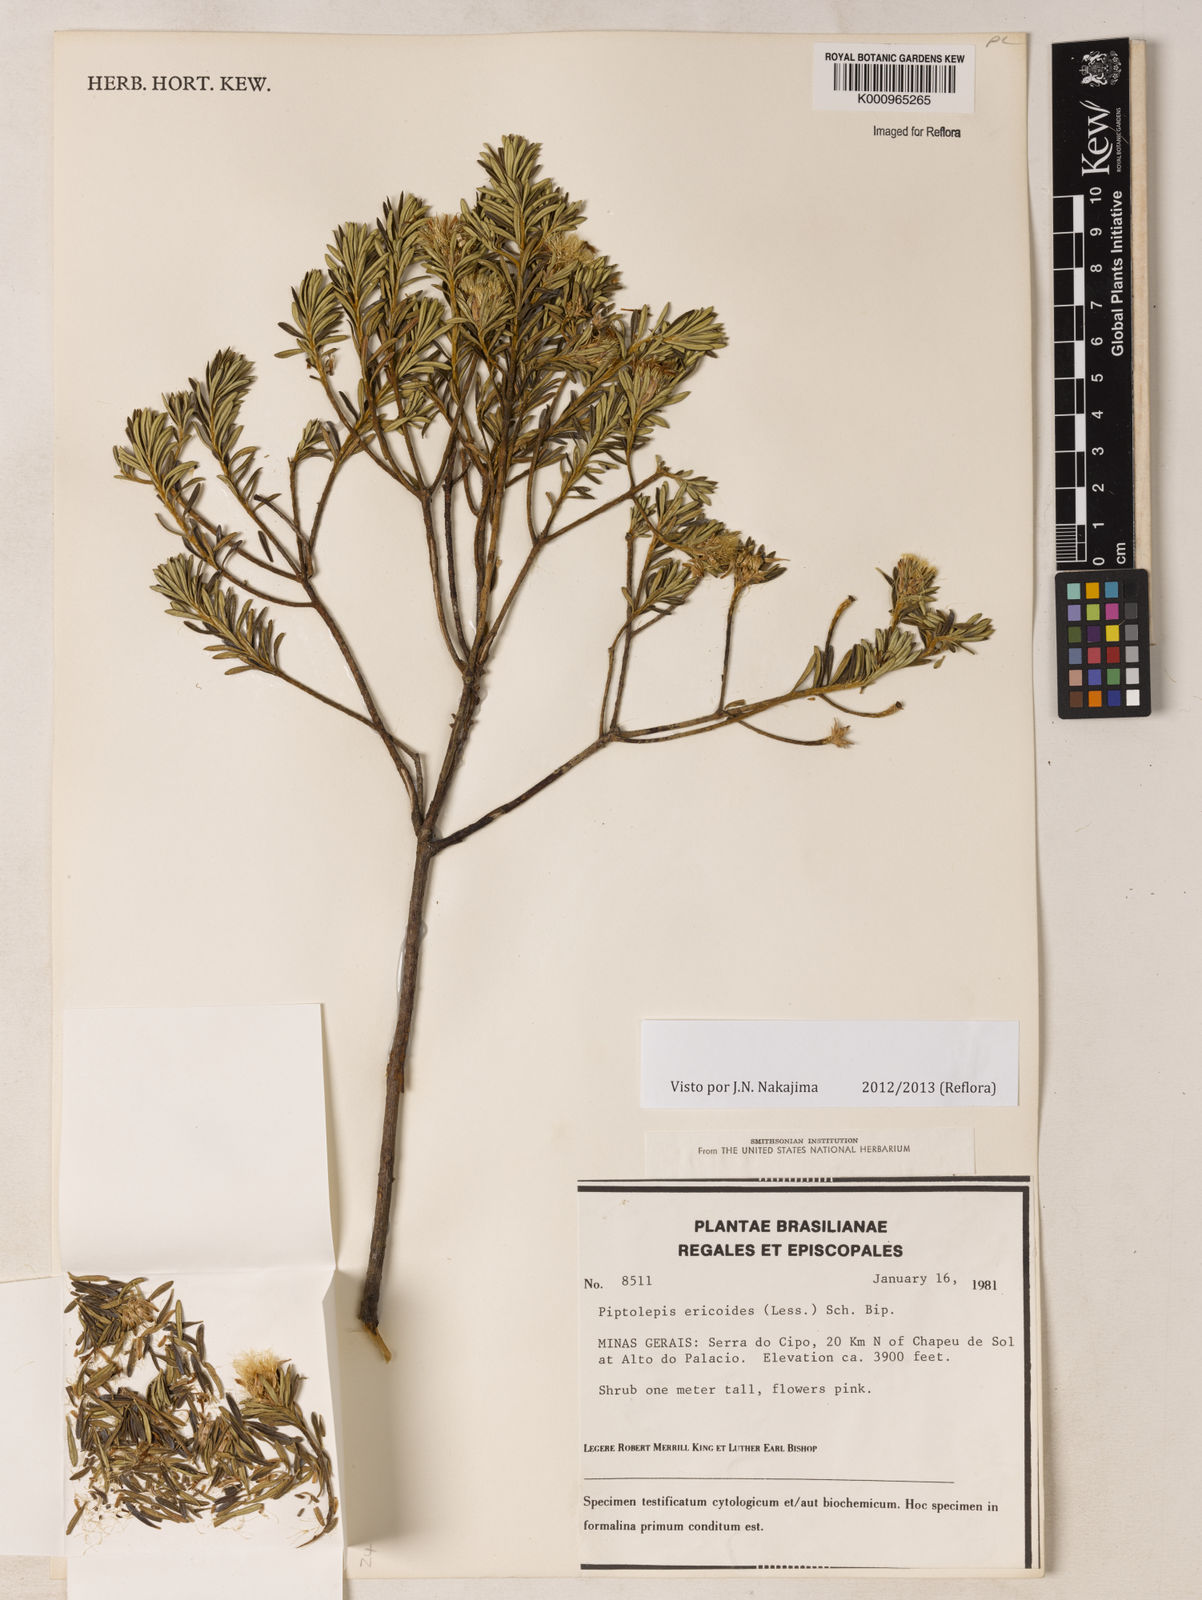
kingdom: Plantae
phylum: Tracheophyta
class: Magnoliopsida
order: Asterales
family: Asteraceae
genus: Piptolepis
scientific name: Piptolepis ericoides
